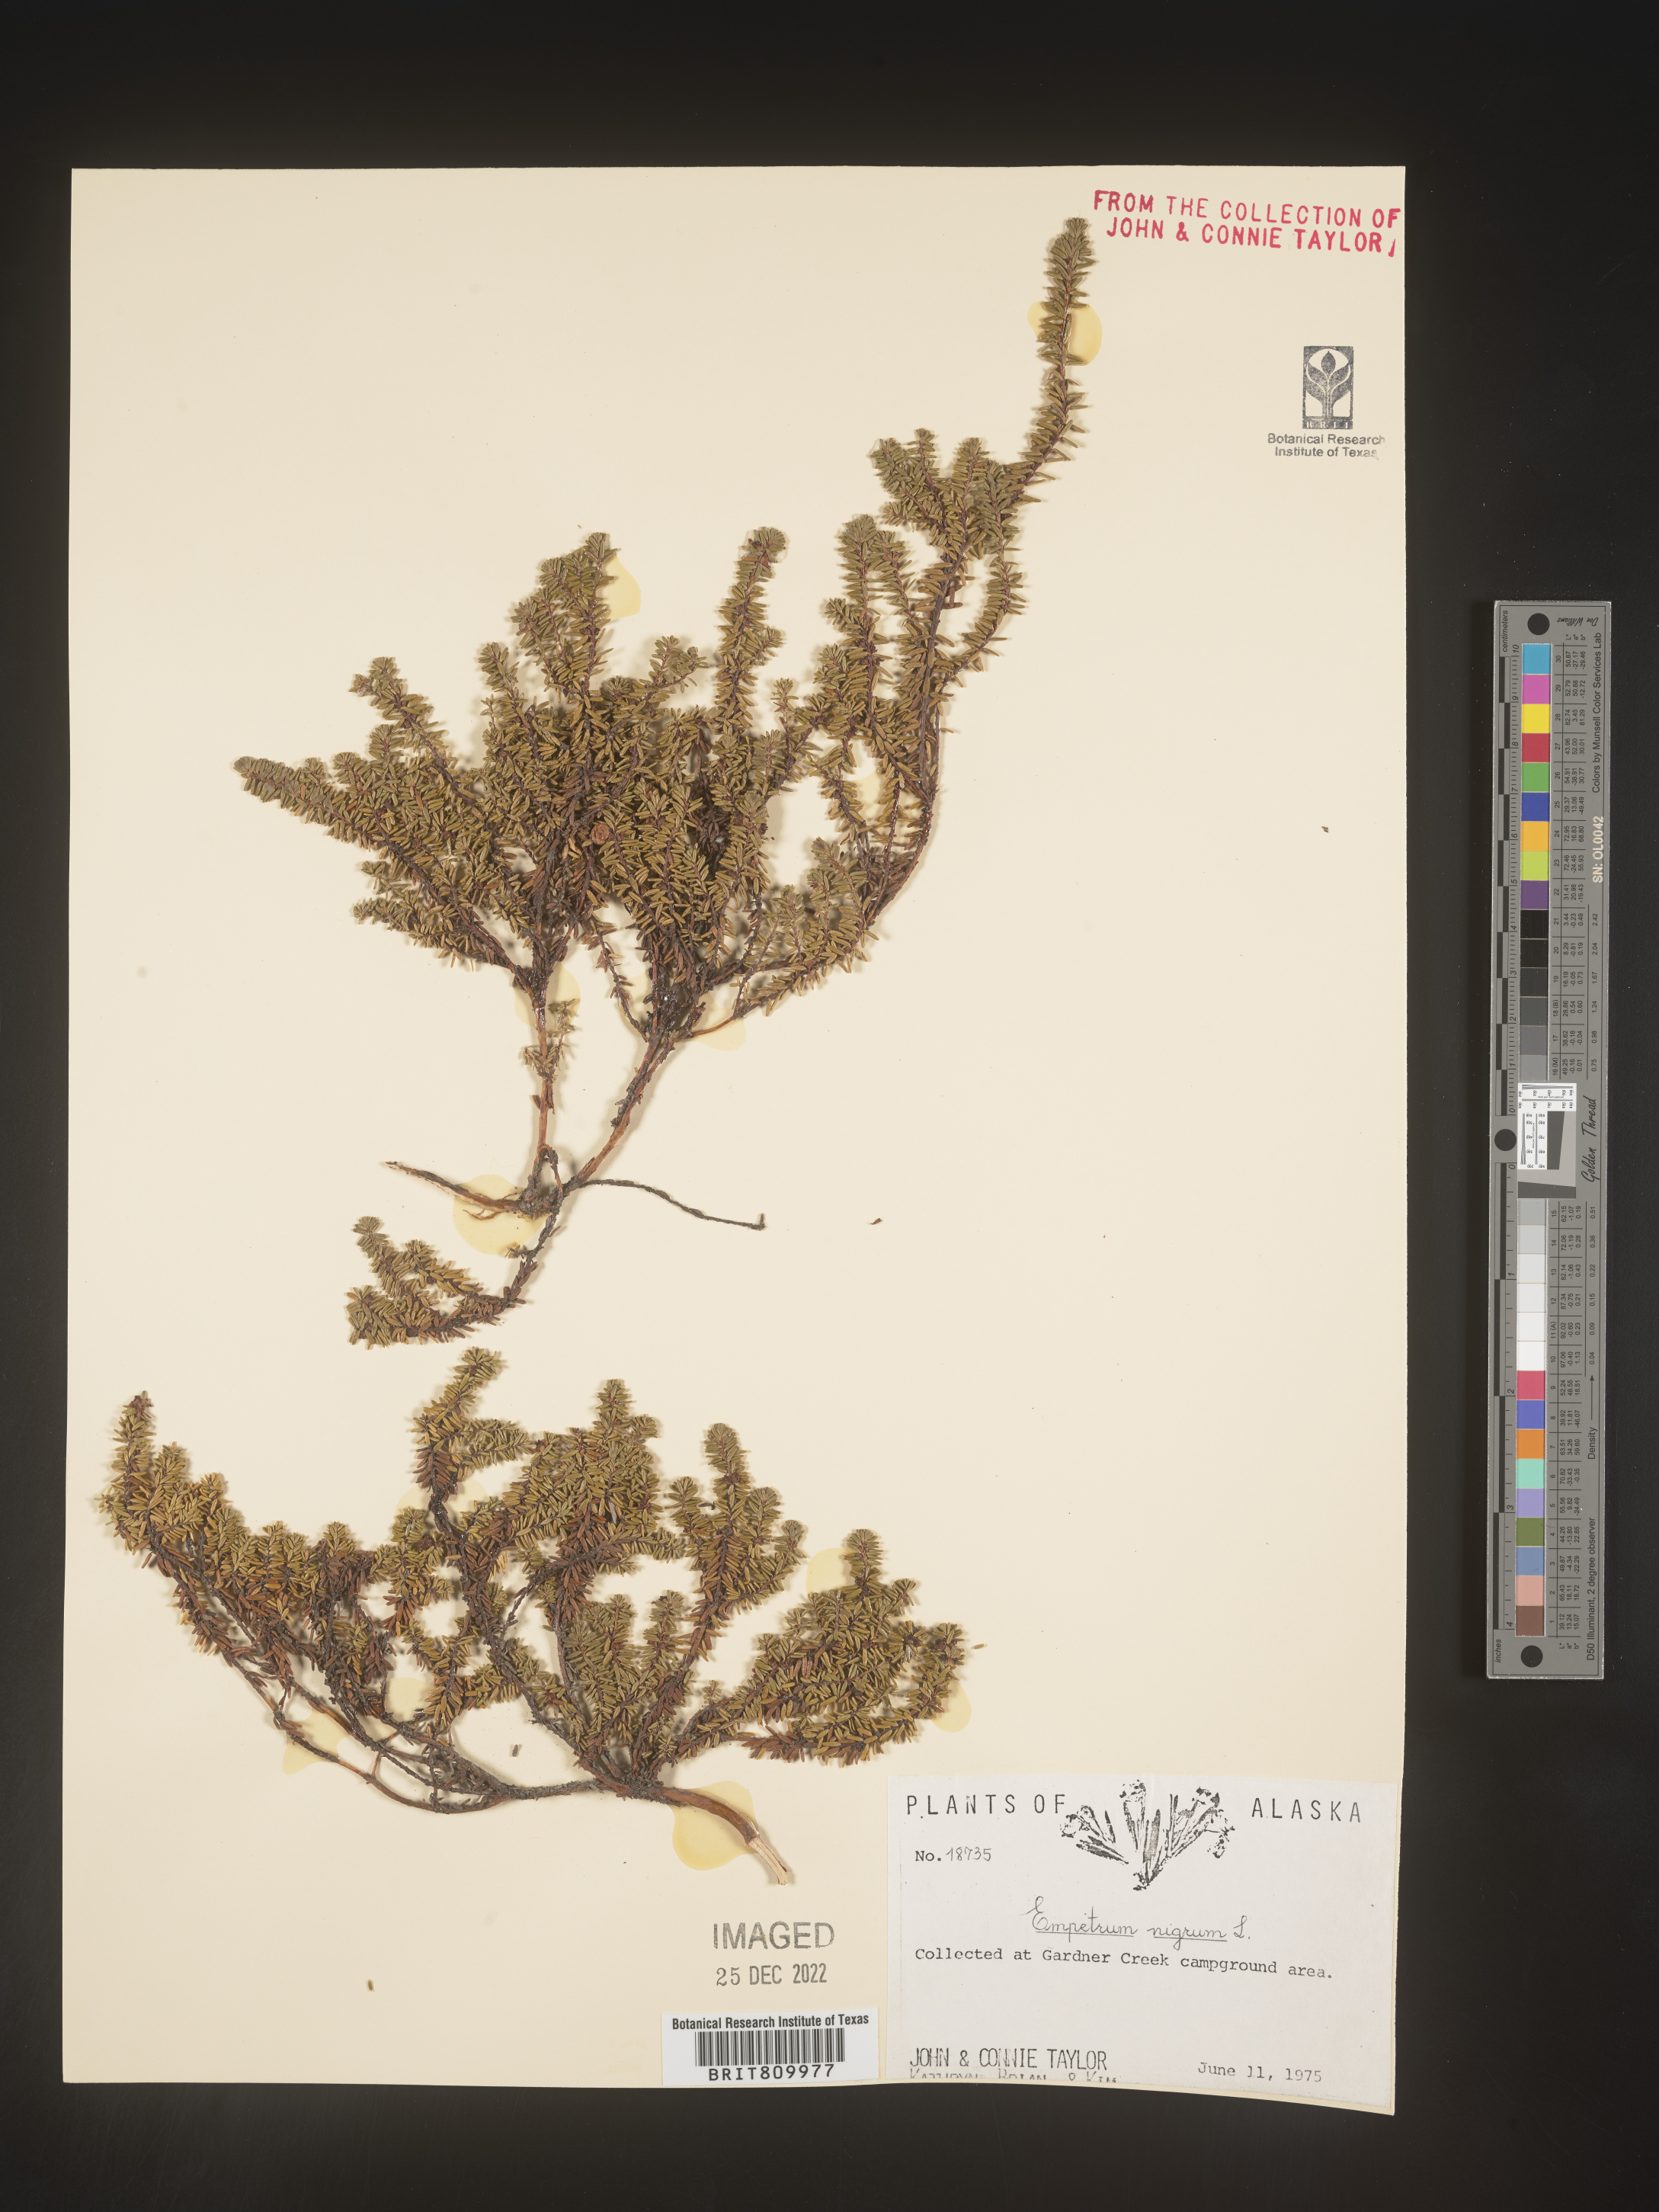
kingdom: Plantae
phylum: Tracheophyta
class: Magnoliopsida
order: Ericales
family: Ericaceae
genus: Empetrum
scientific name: Empetrum
